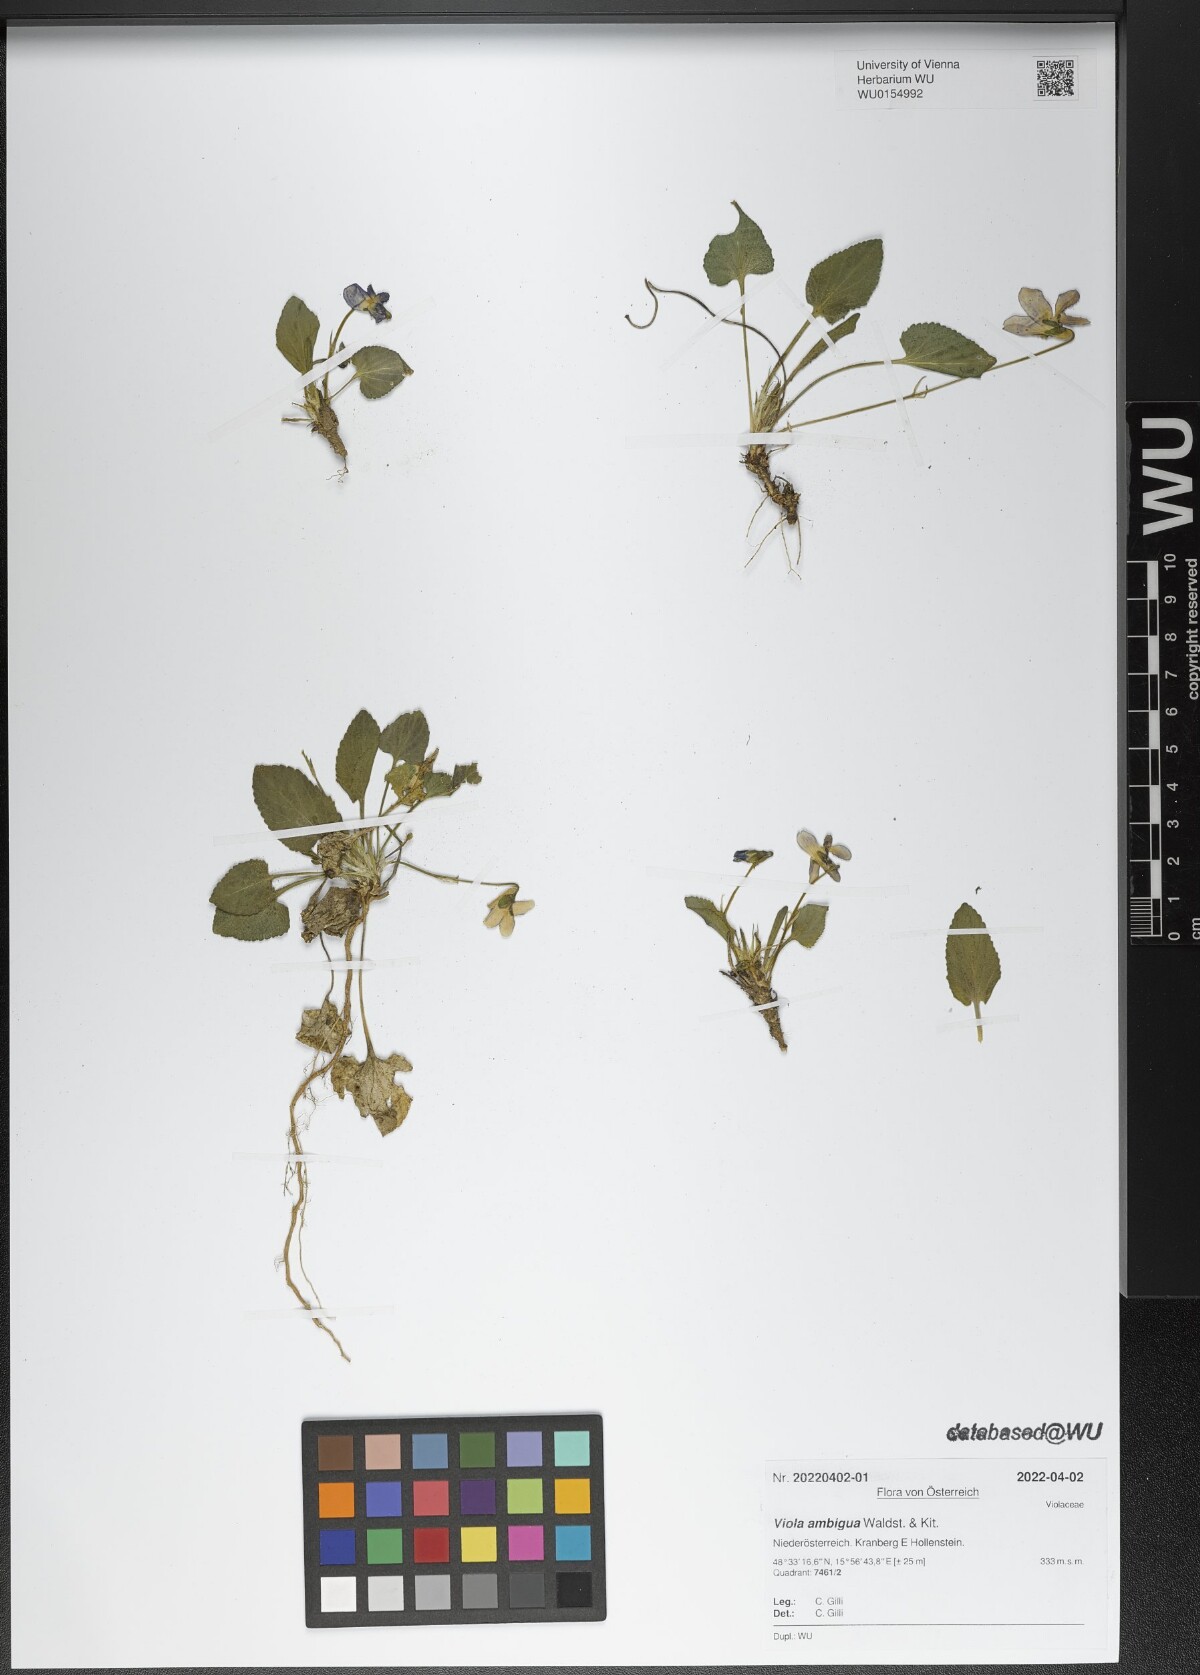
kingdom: Plantae
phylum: Tracheophyta
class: Magnoliopsida
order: Malpighiales
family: Violaceae
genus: Viola
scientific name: Viola ambigua
